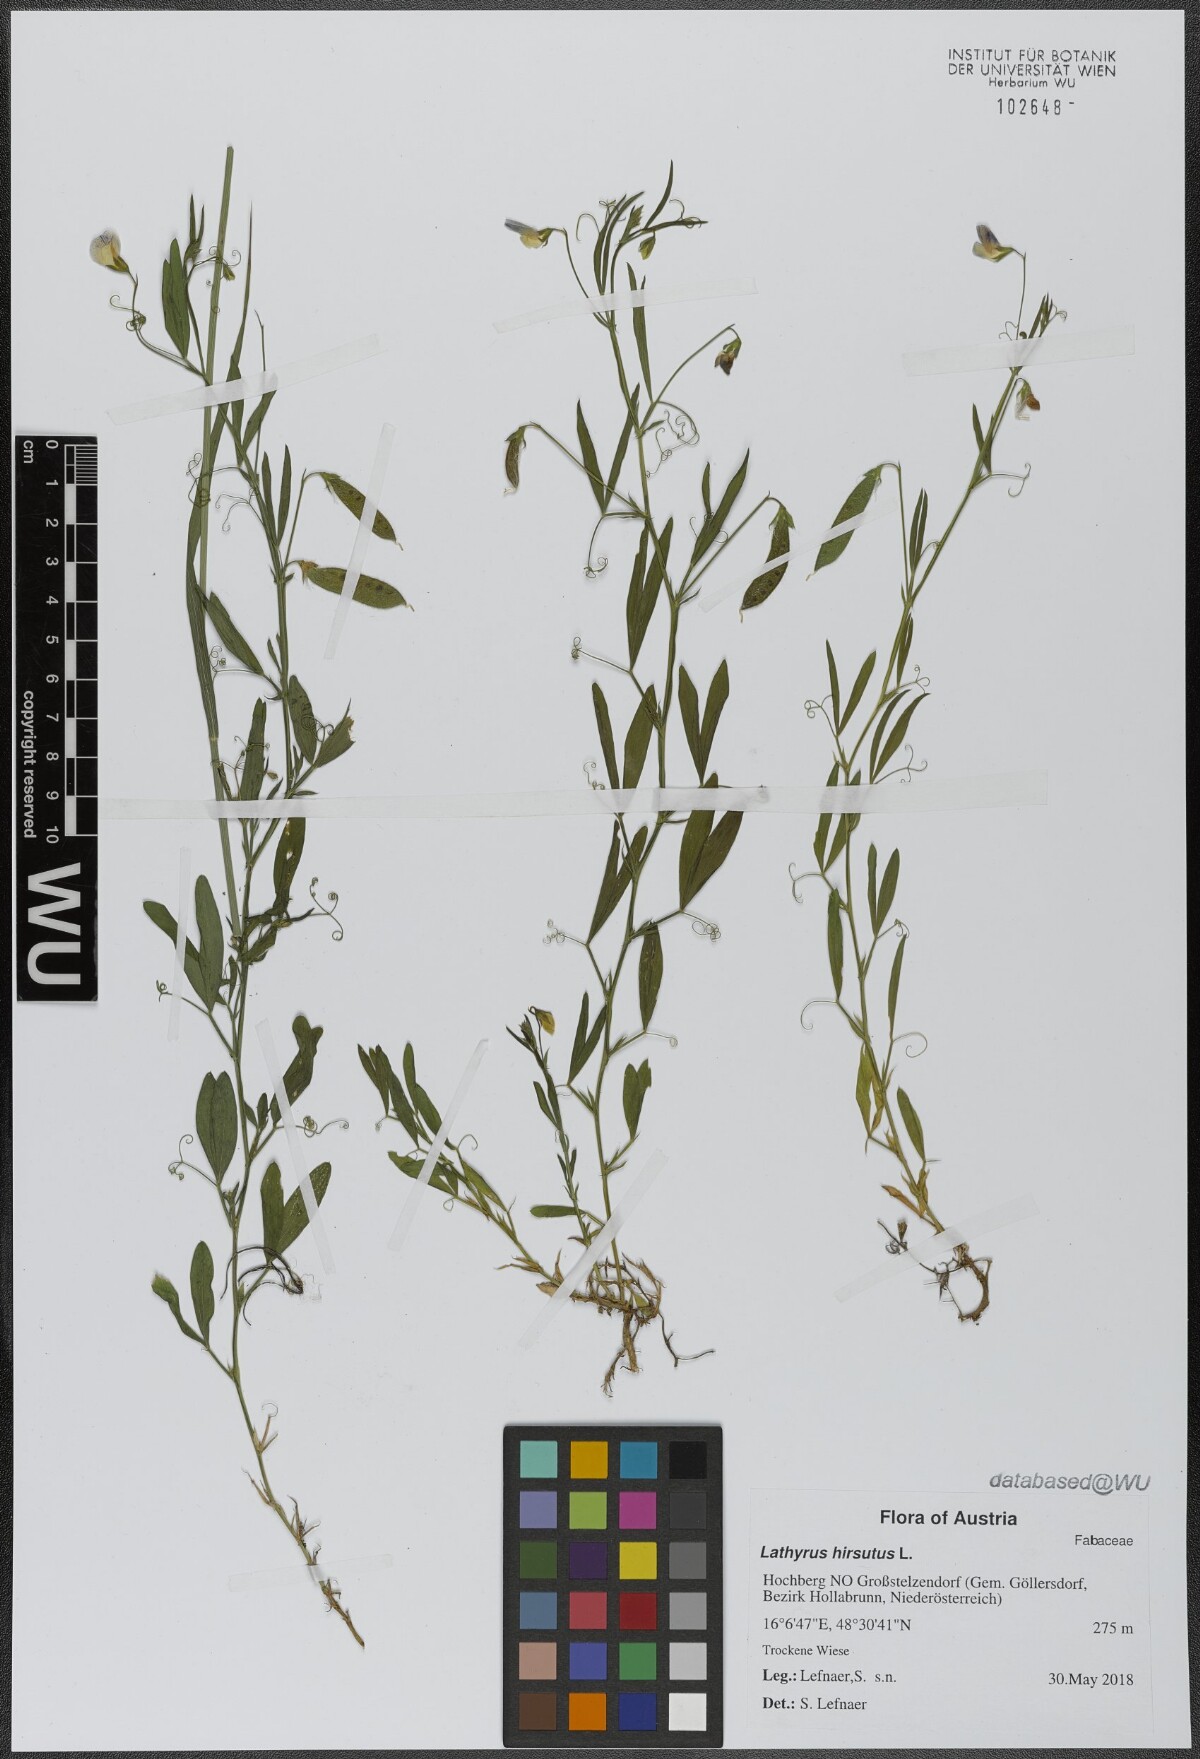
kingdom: Plantae
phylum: Tracheophyta
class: Magnoliopsida
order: Fabales
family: Fabaceae
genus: Lathyrus
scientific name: Lathyrus hirsutus
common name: Hairy vetchling
